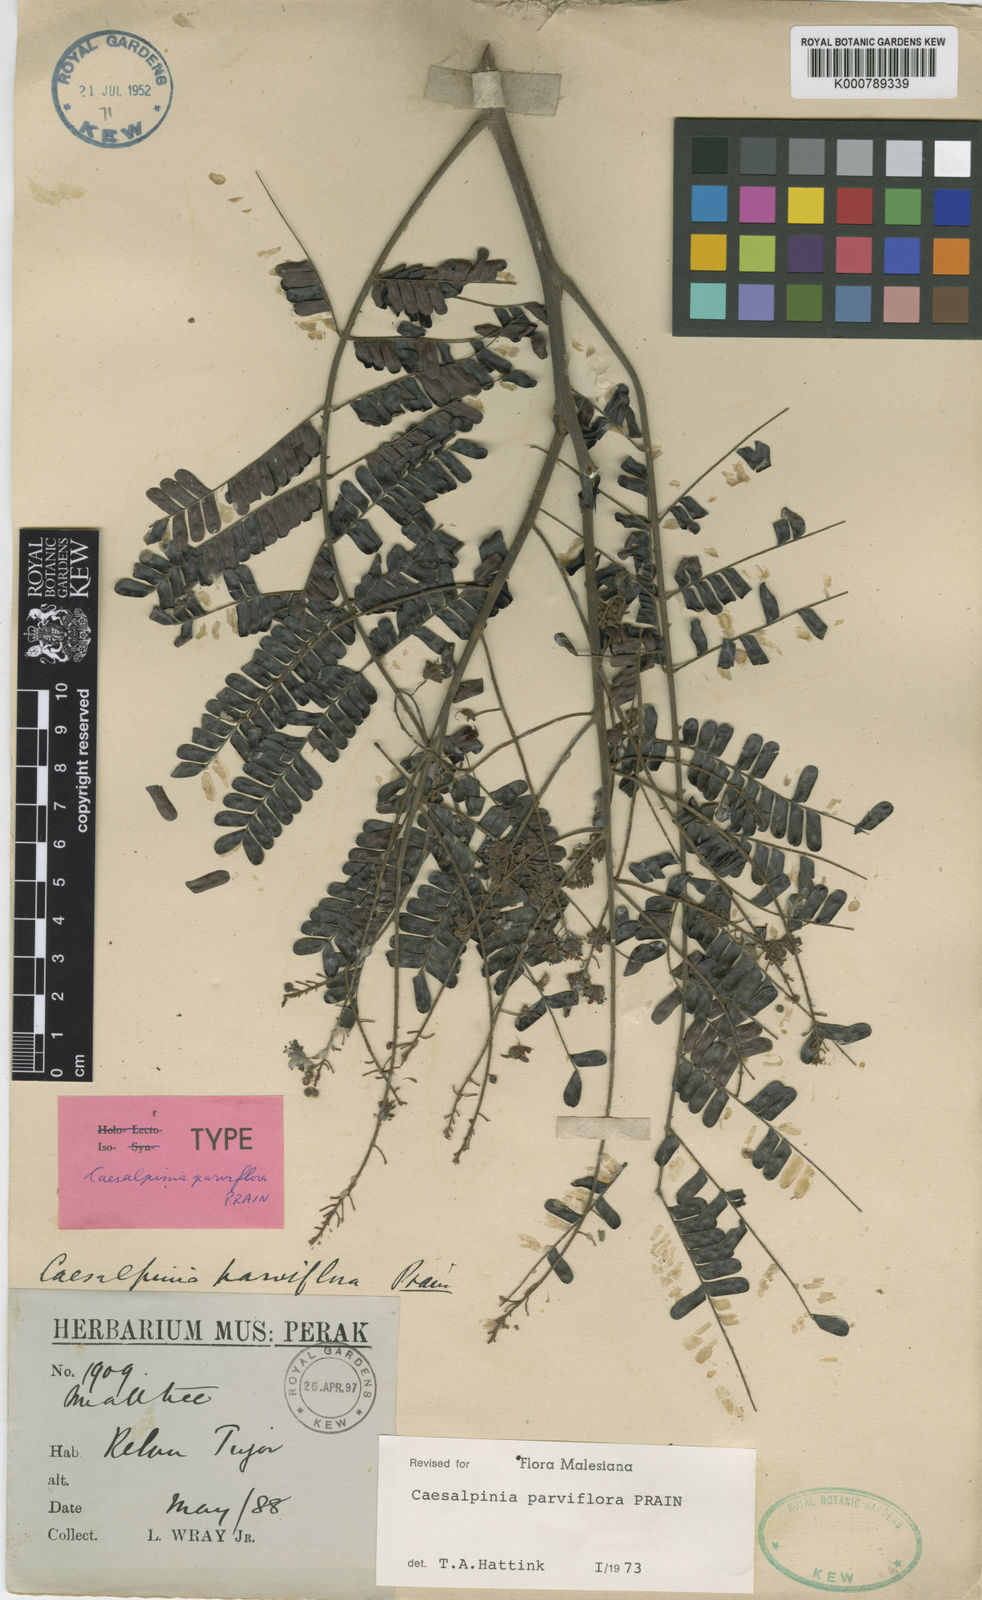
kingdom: Plantae
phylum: Tracheophyta
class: Magnoliopsida
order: Fabales
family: Fabaceae
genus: Caesalpinia
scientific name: Caesalpinia
